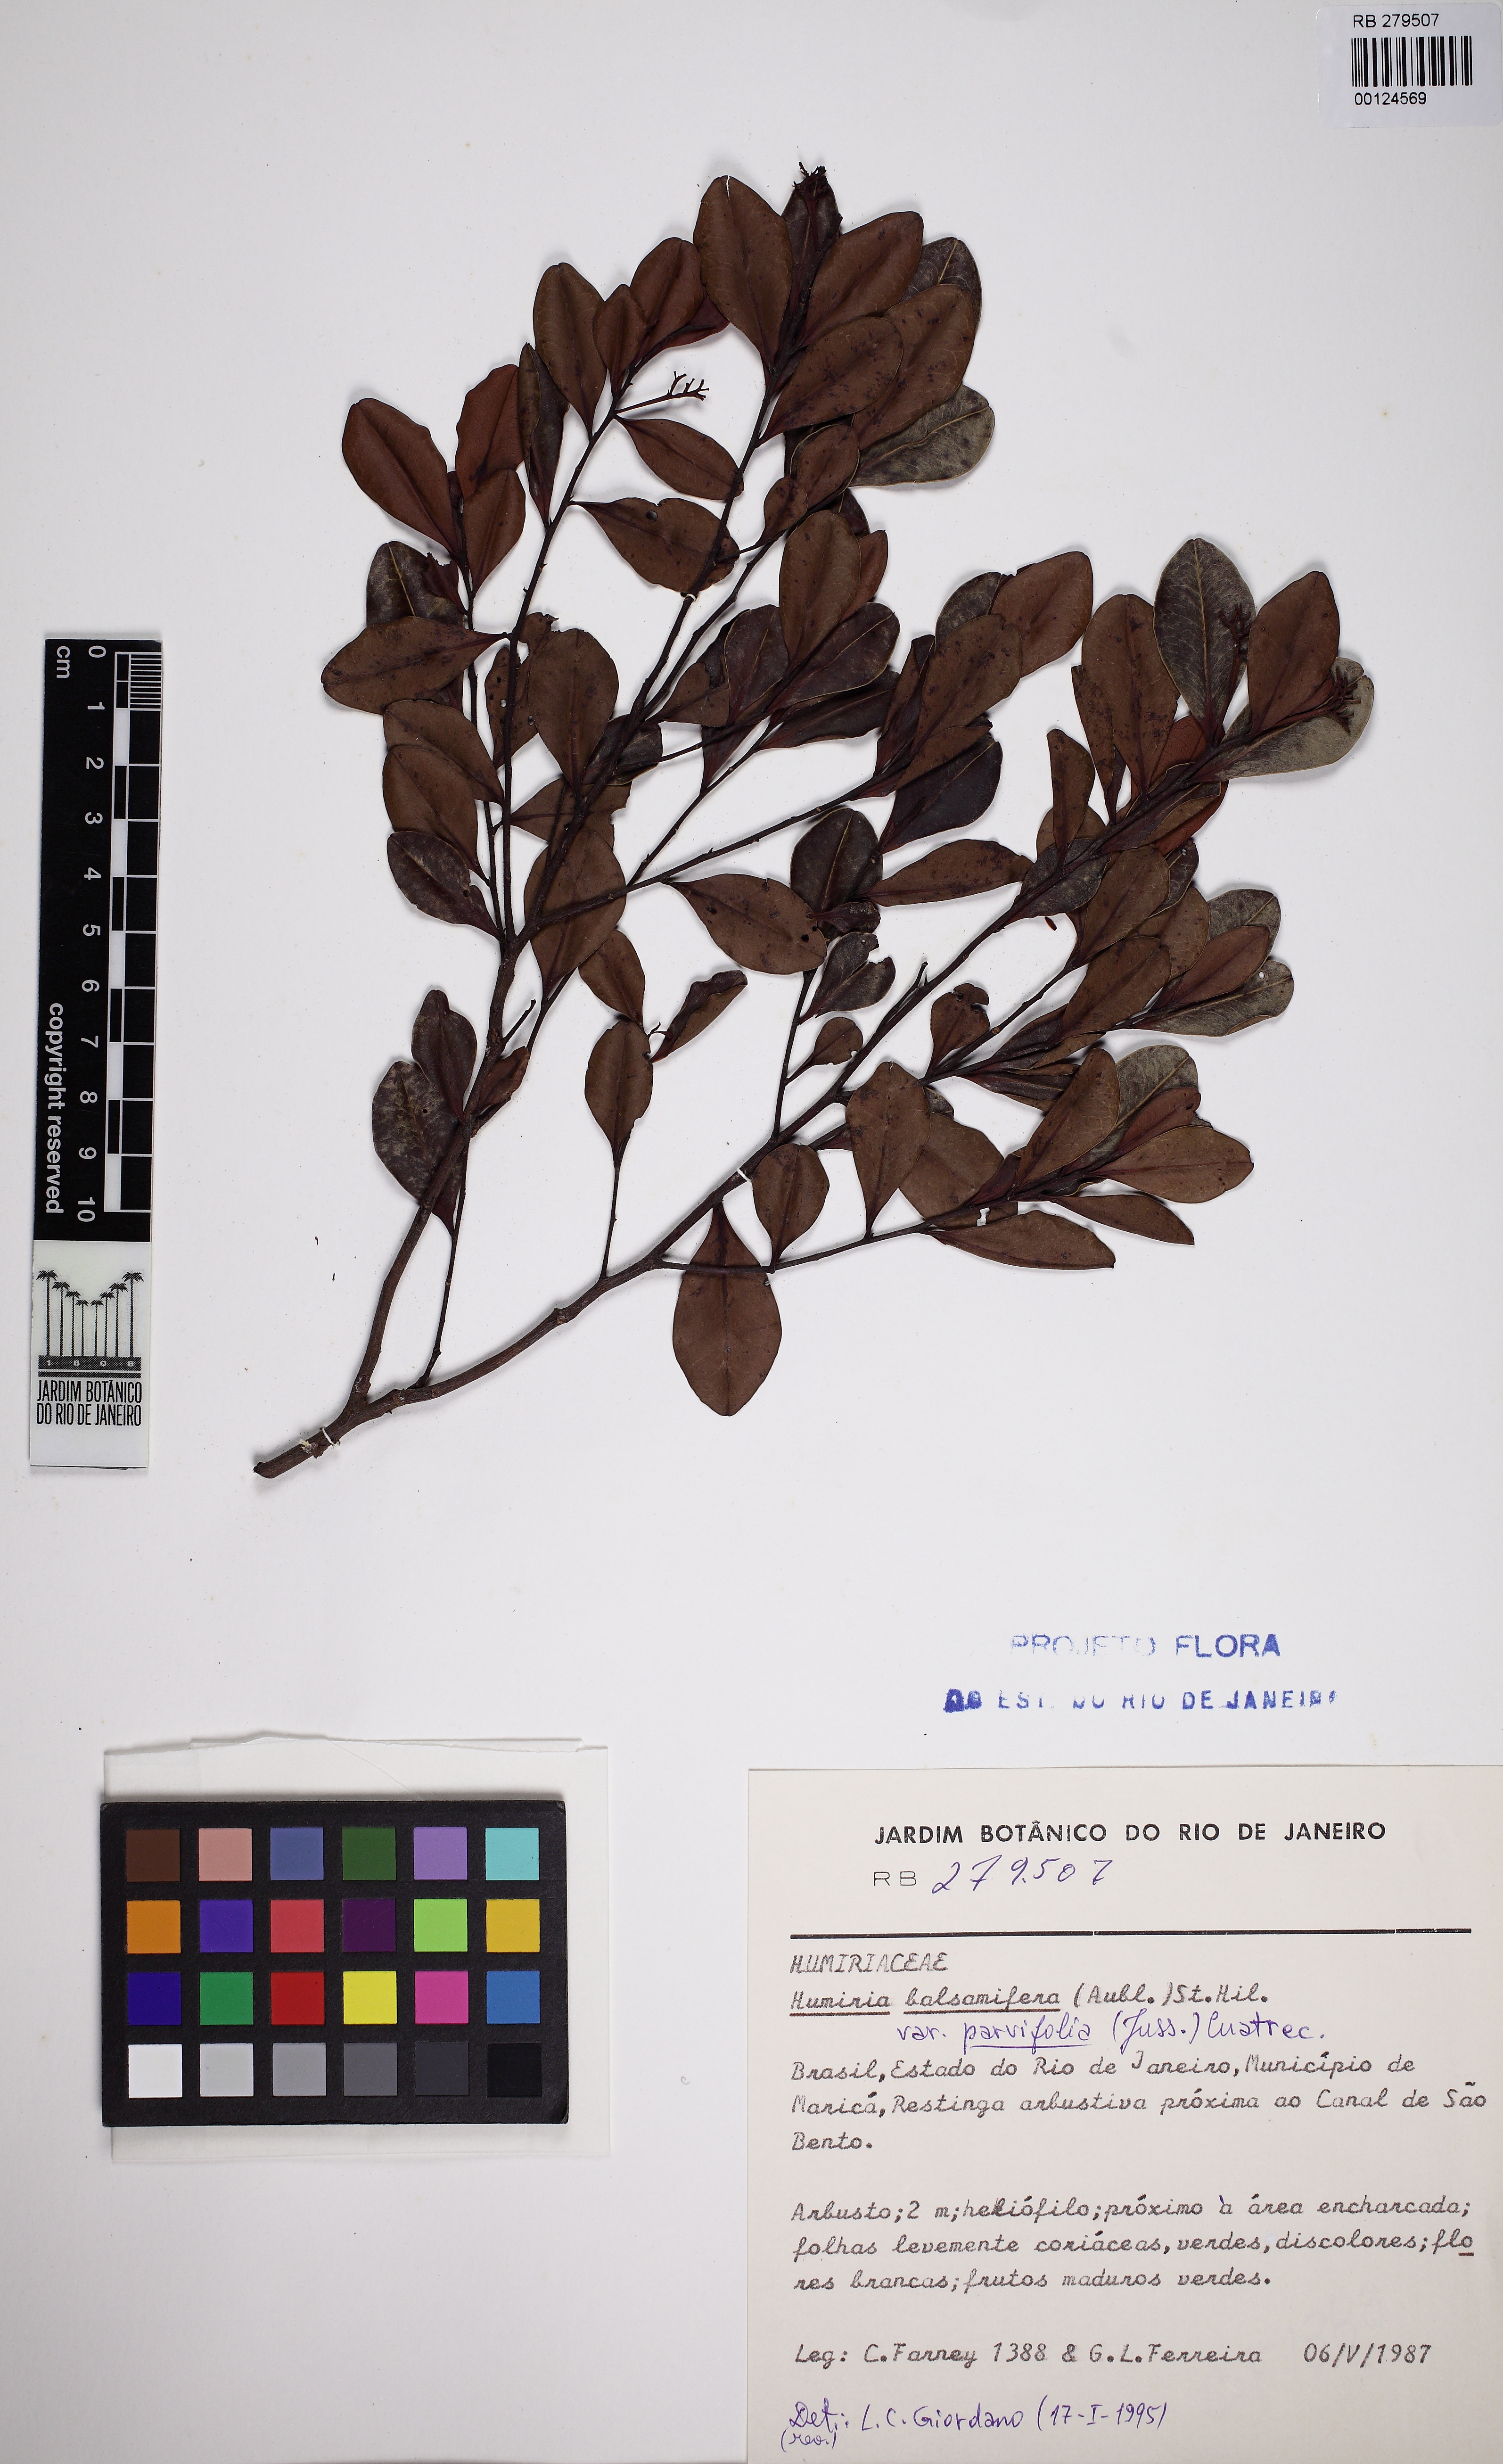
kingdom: Plantae
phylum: Tracheophyta
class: Magnoliopsida
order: Malpighiales
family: Humiriaceae
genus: Humiria
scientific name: Humiria parvifolia
